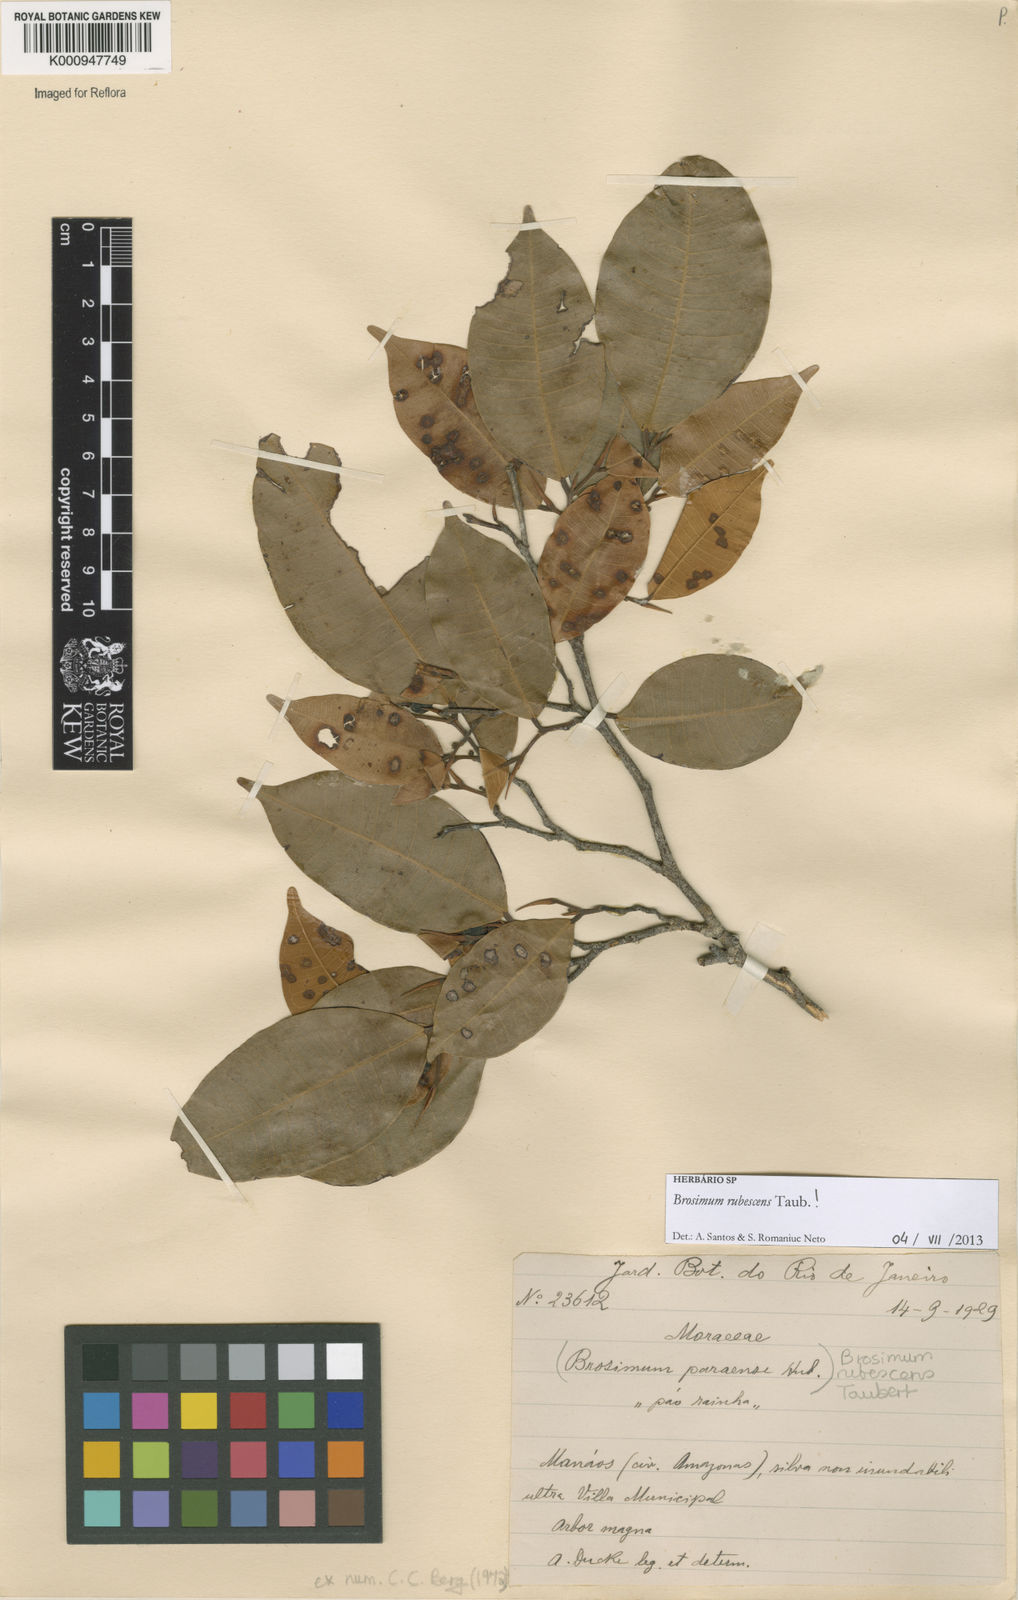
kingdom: Plantae
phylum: Tracheophyta
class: Magnoliopsida
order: Rosales
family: Moraceae
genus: Brosimum
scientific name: Brosimum rubescens
